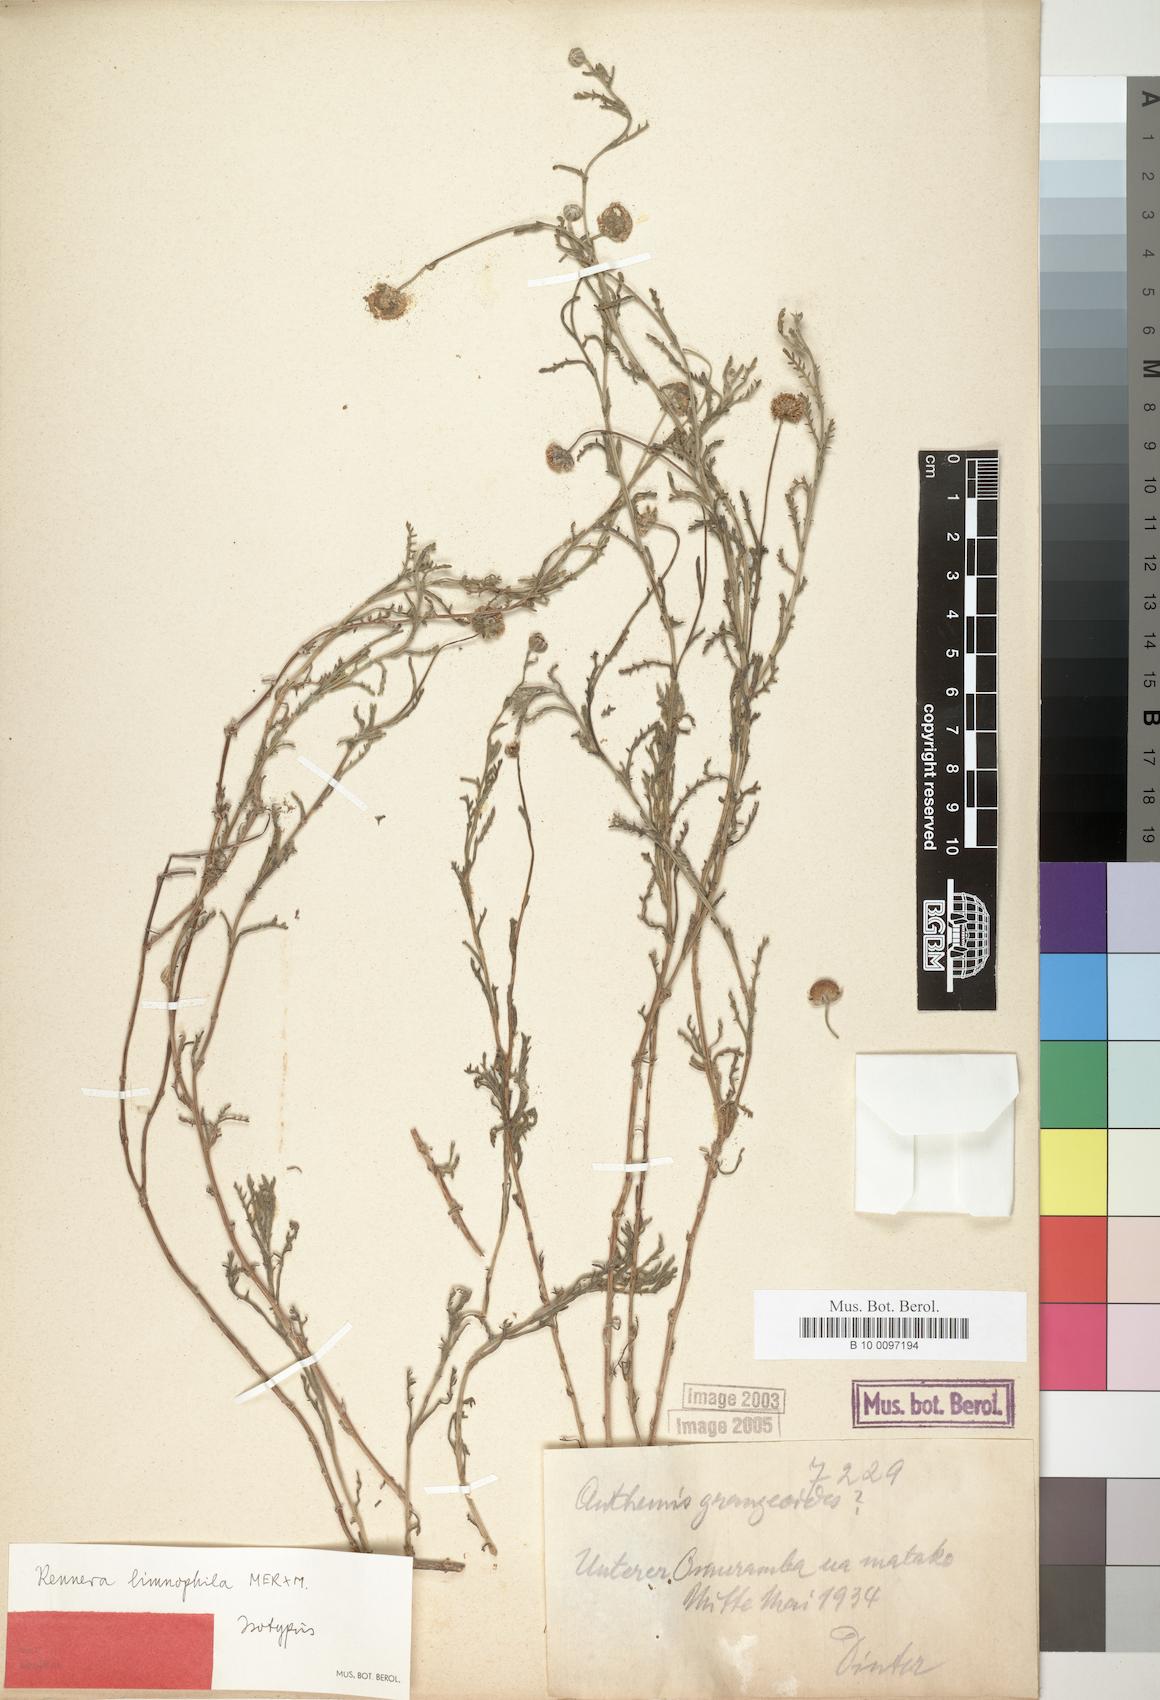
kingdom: Plantae
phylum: Tracheophyta
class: Magnoliopsida
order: Asterales
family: Asteraceae
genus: Pentzia
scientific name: Pentzia limnophila
